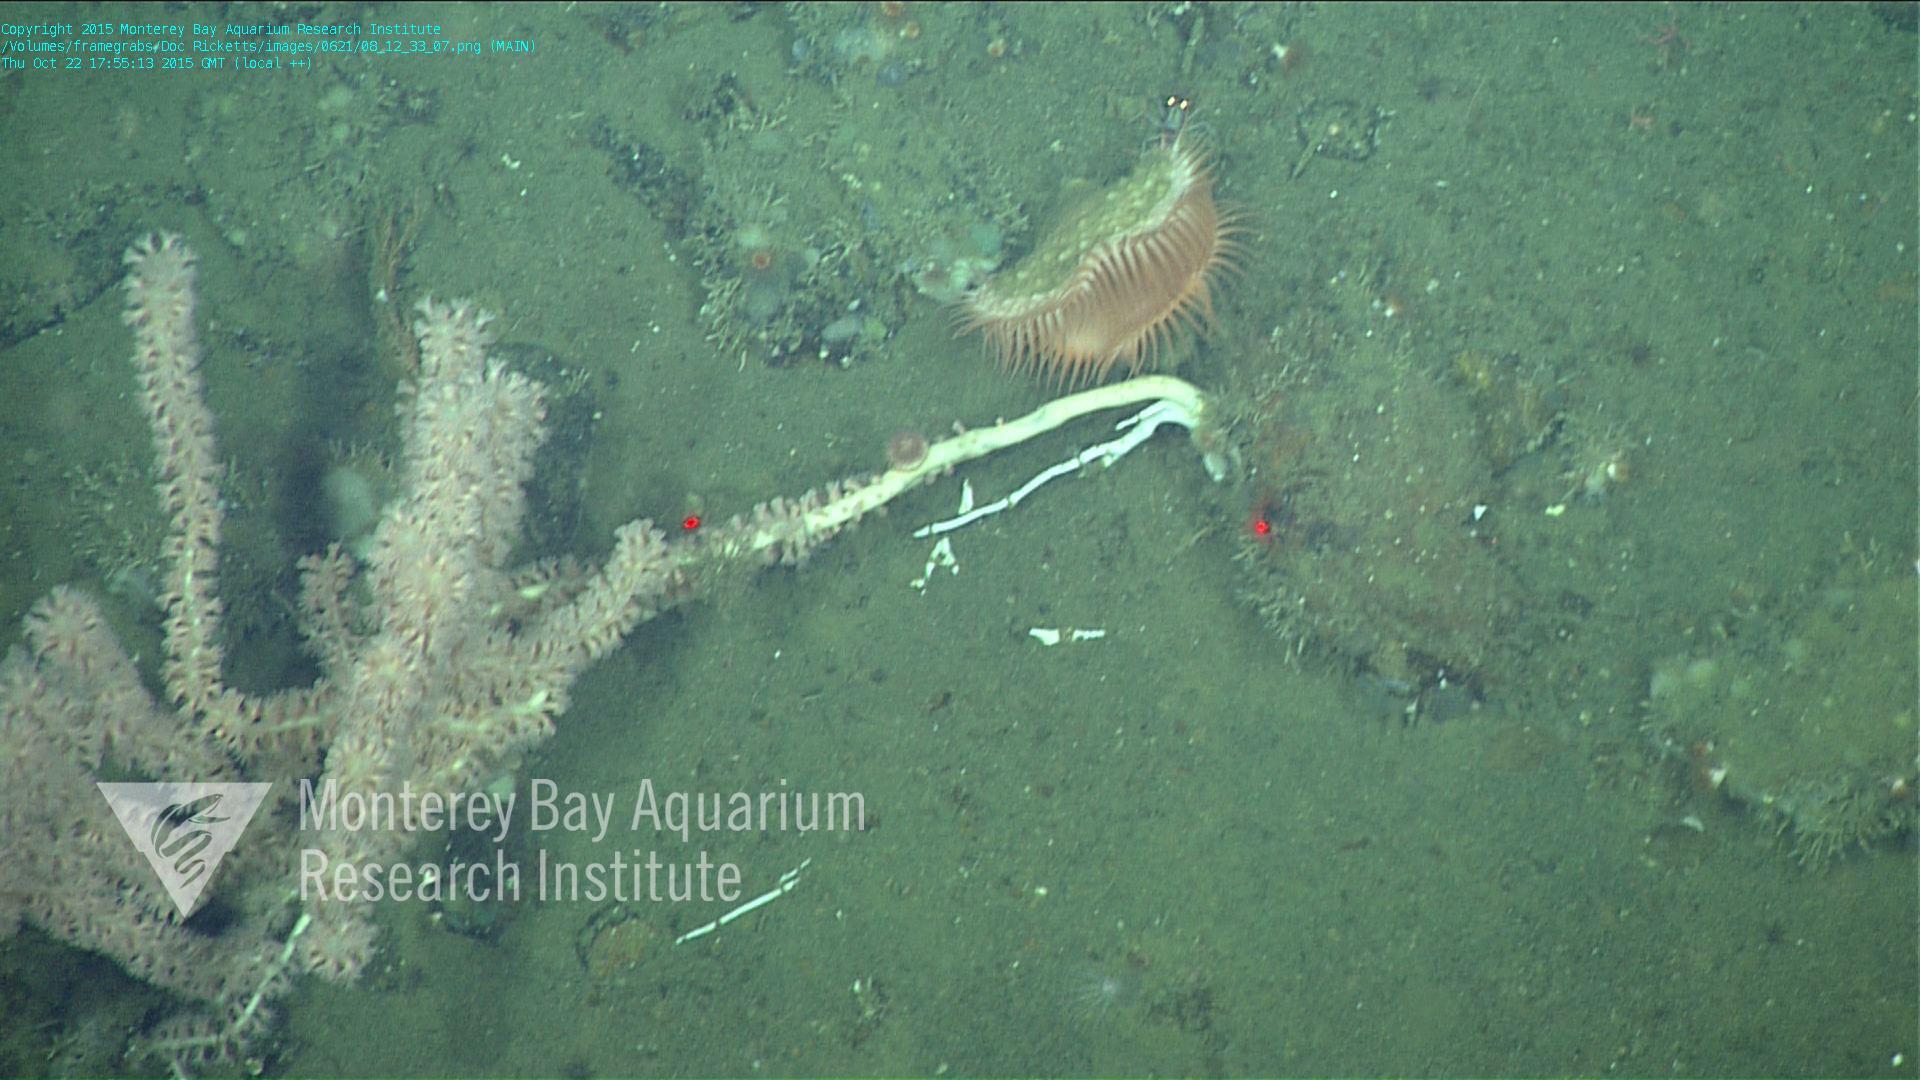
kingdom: Animalia
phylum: Cnidaria
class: Anthozoa
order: Scleralcyonacea
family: Keratoisididae
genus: Keratoisis
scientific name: Keratoisis
